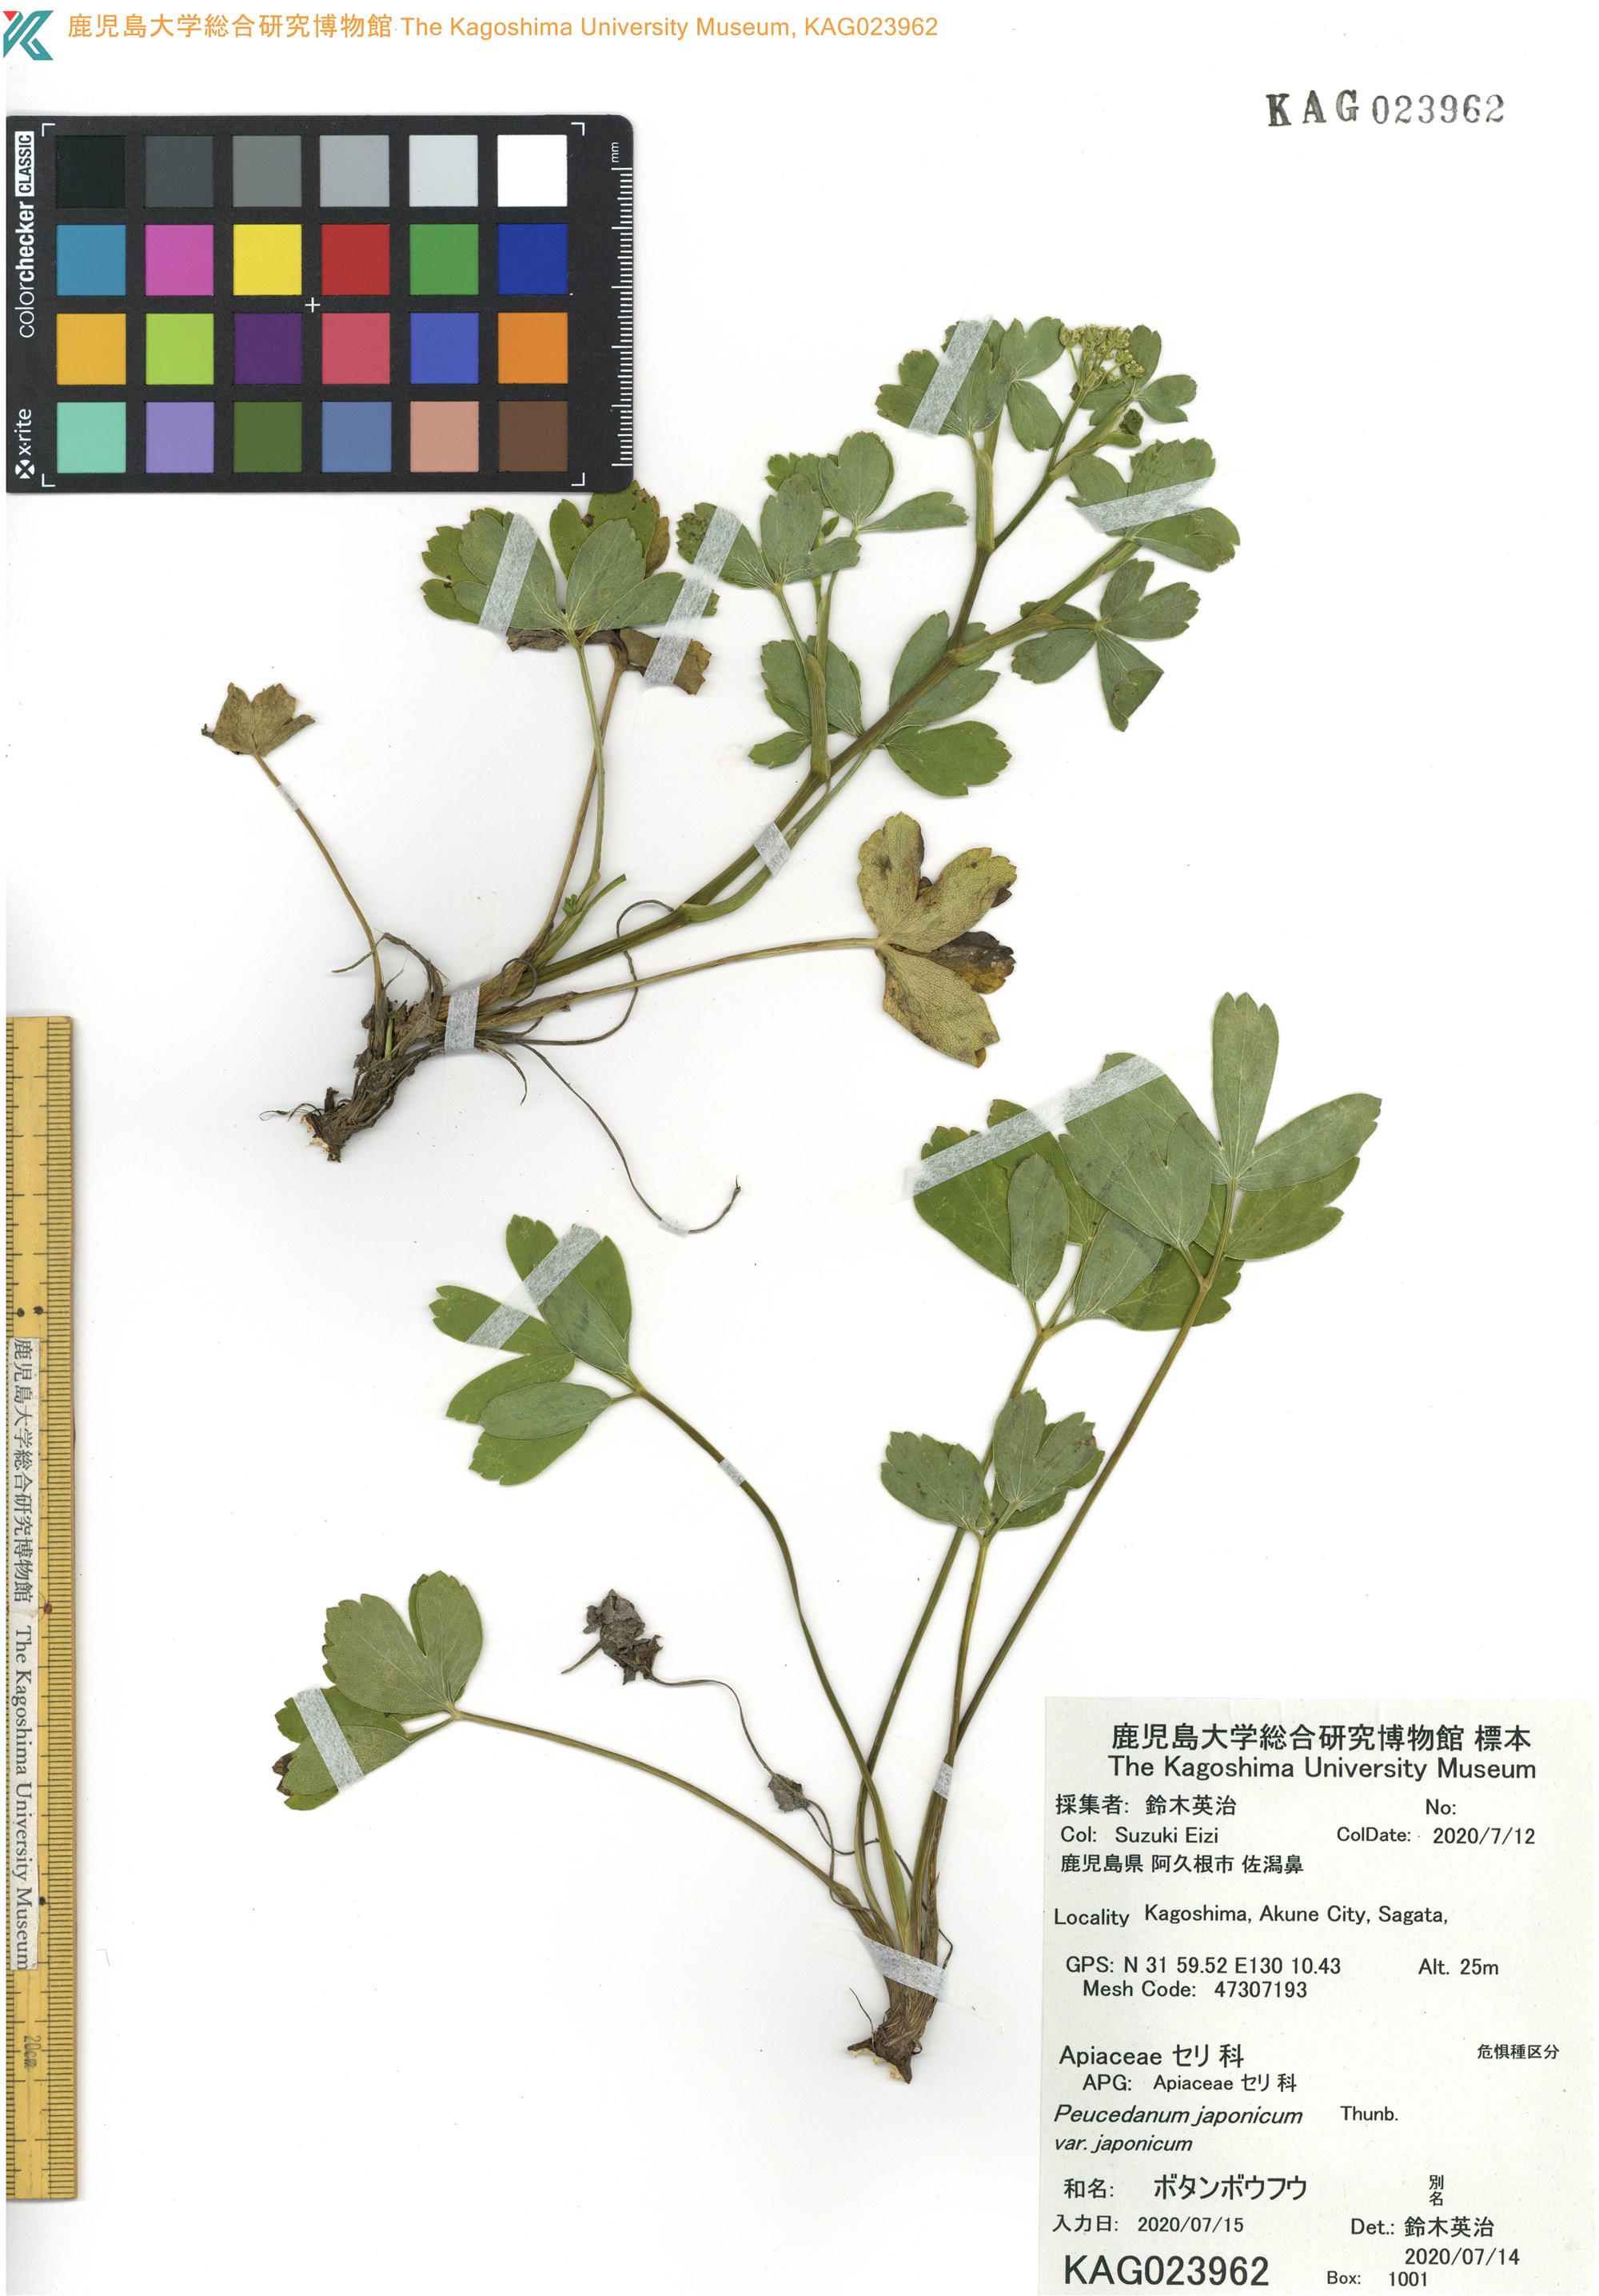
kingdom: Plantae
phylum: Tracheophyta
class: Magnoliopsida
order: Apiales
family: Apiaceae
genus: Peucedanum
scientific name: Peucedanum japonicum
